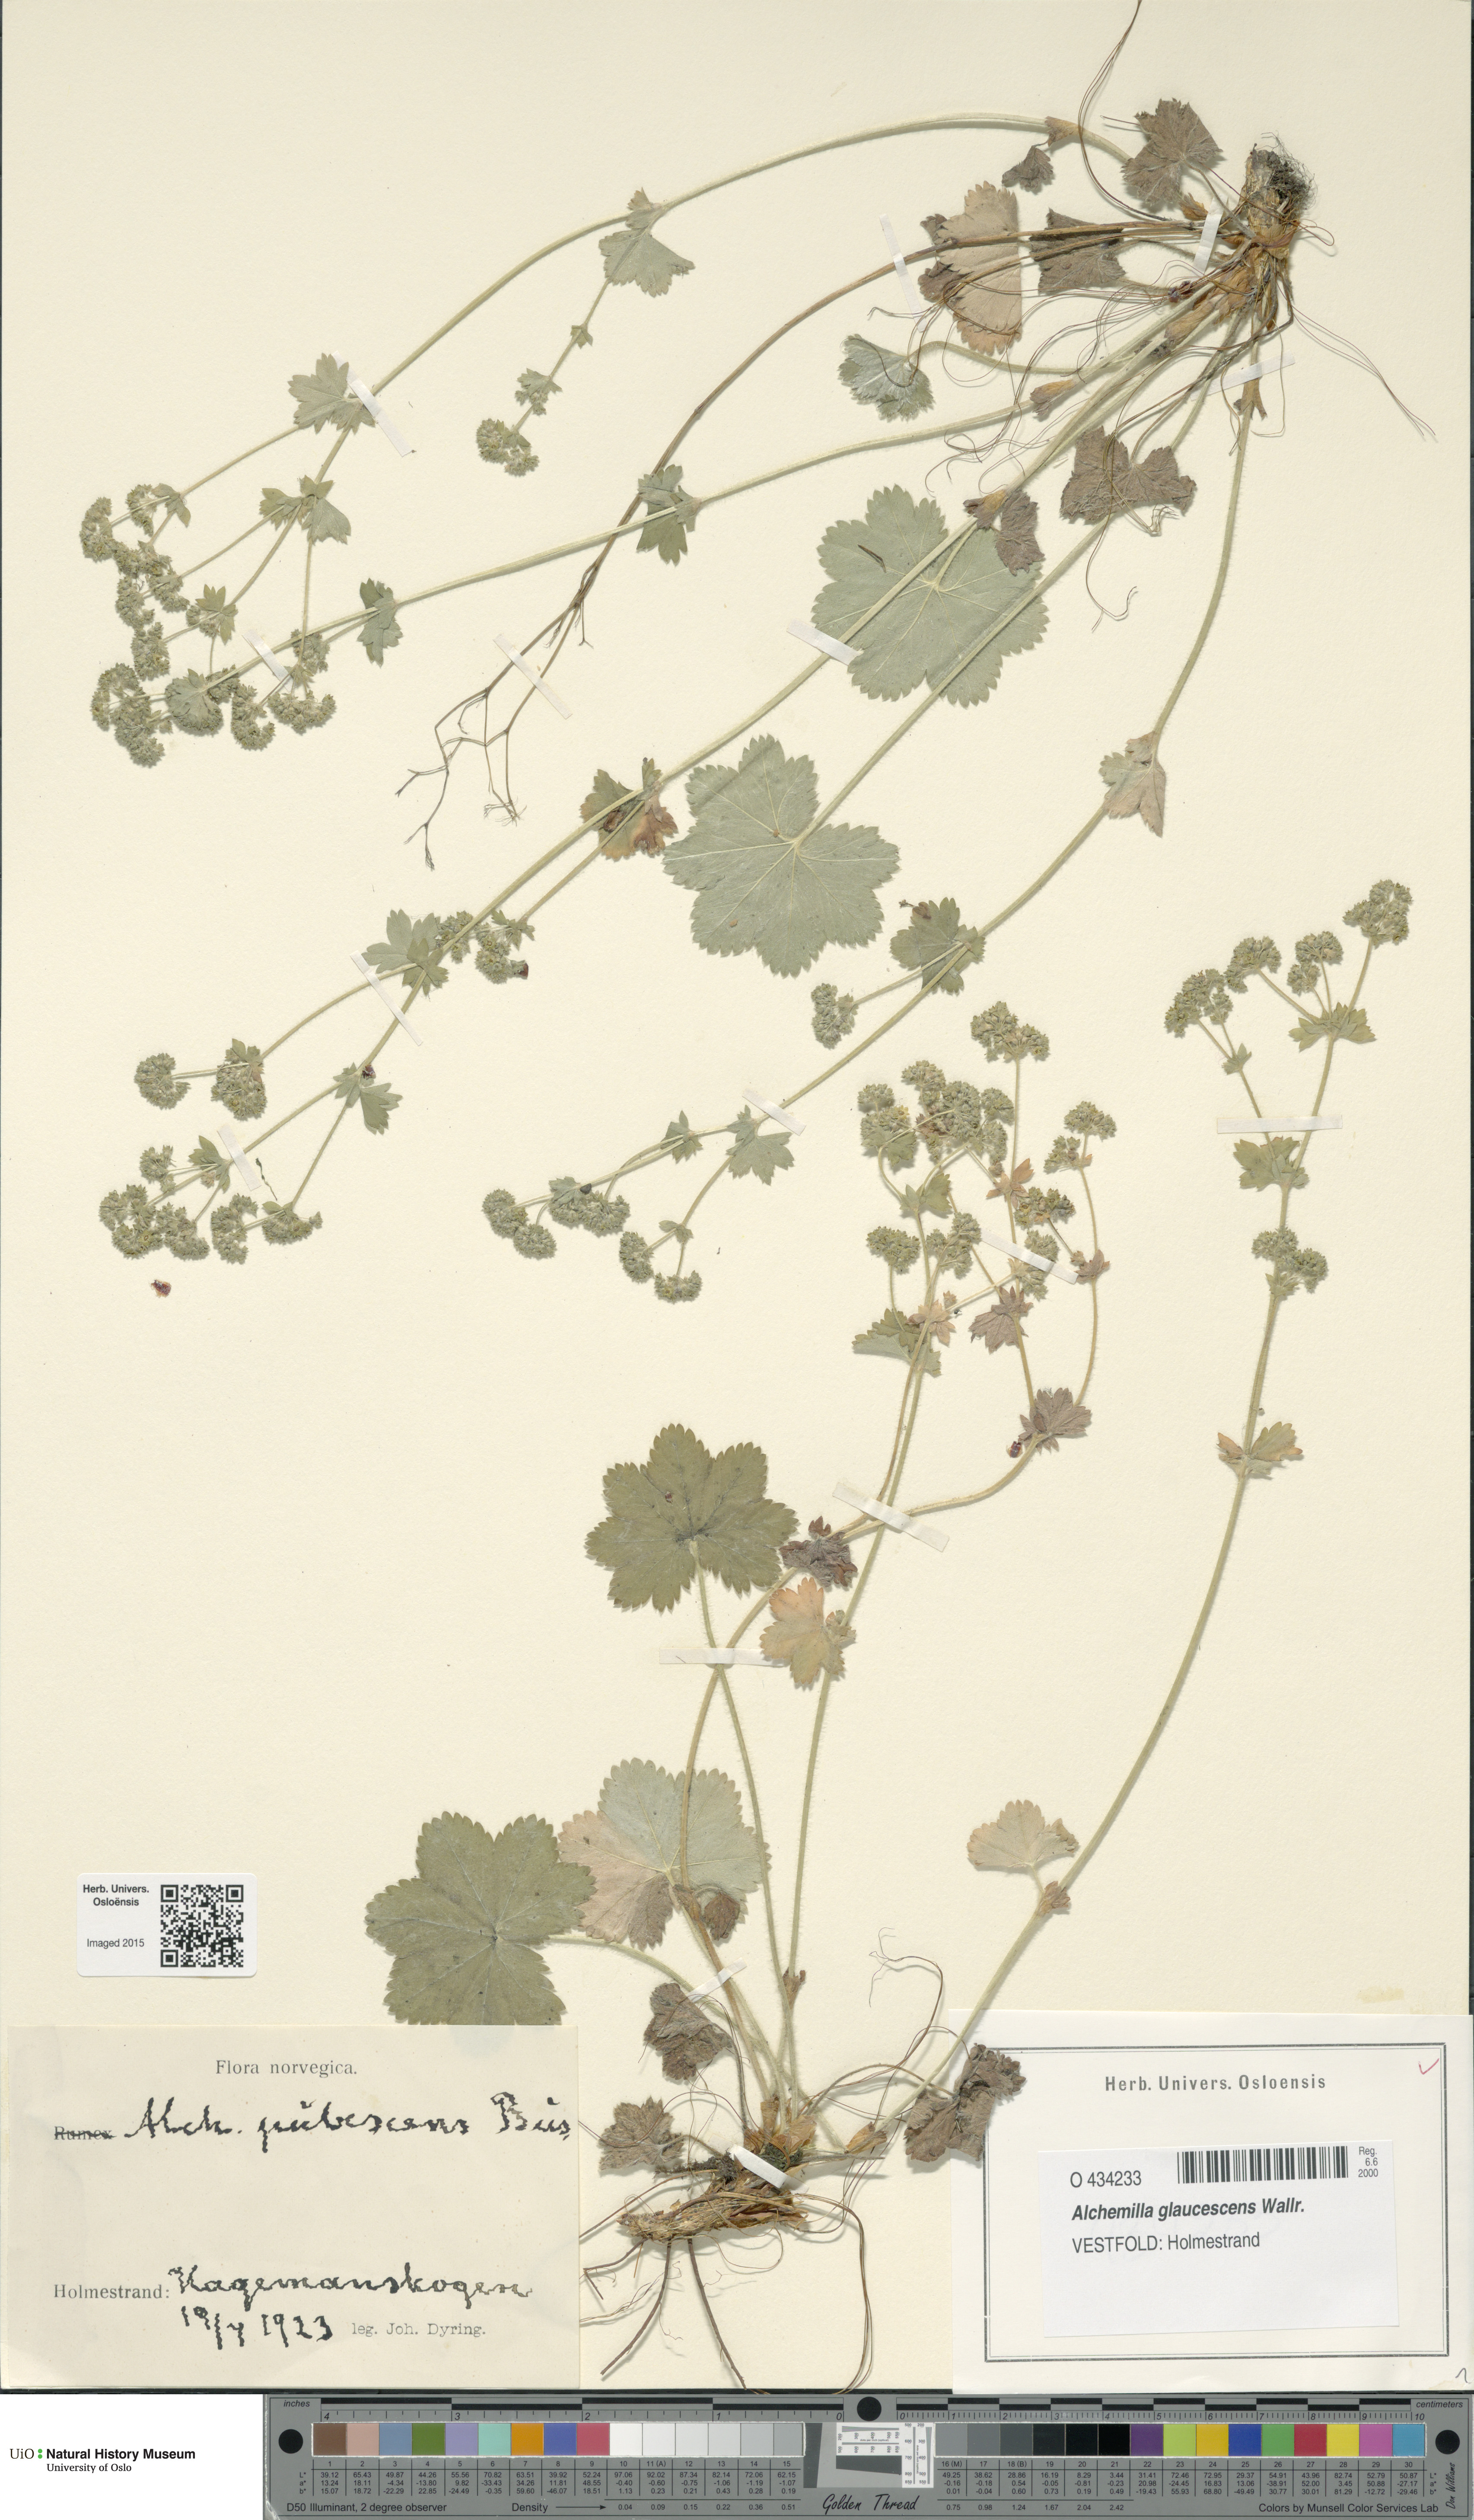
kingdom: Plantae
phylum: Tracheophyta
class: Magnoliopsida
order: Rosales
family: Rosaceae
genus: Alchemilla
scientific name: Alchemilla glaucescens
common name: Silky lady's mantle
